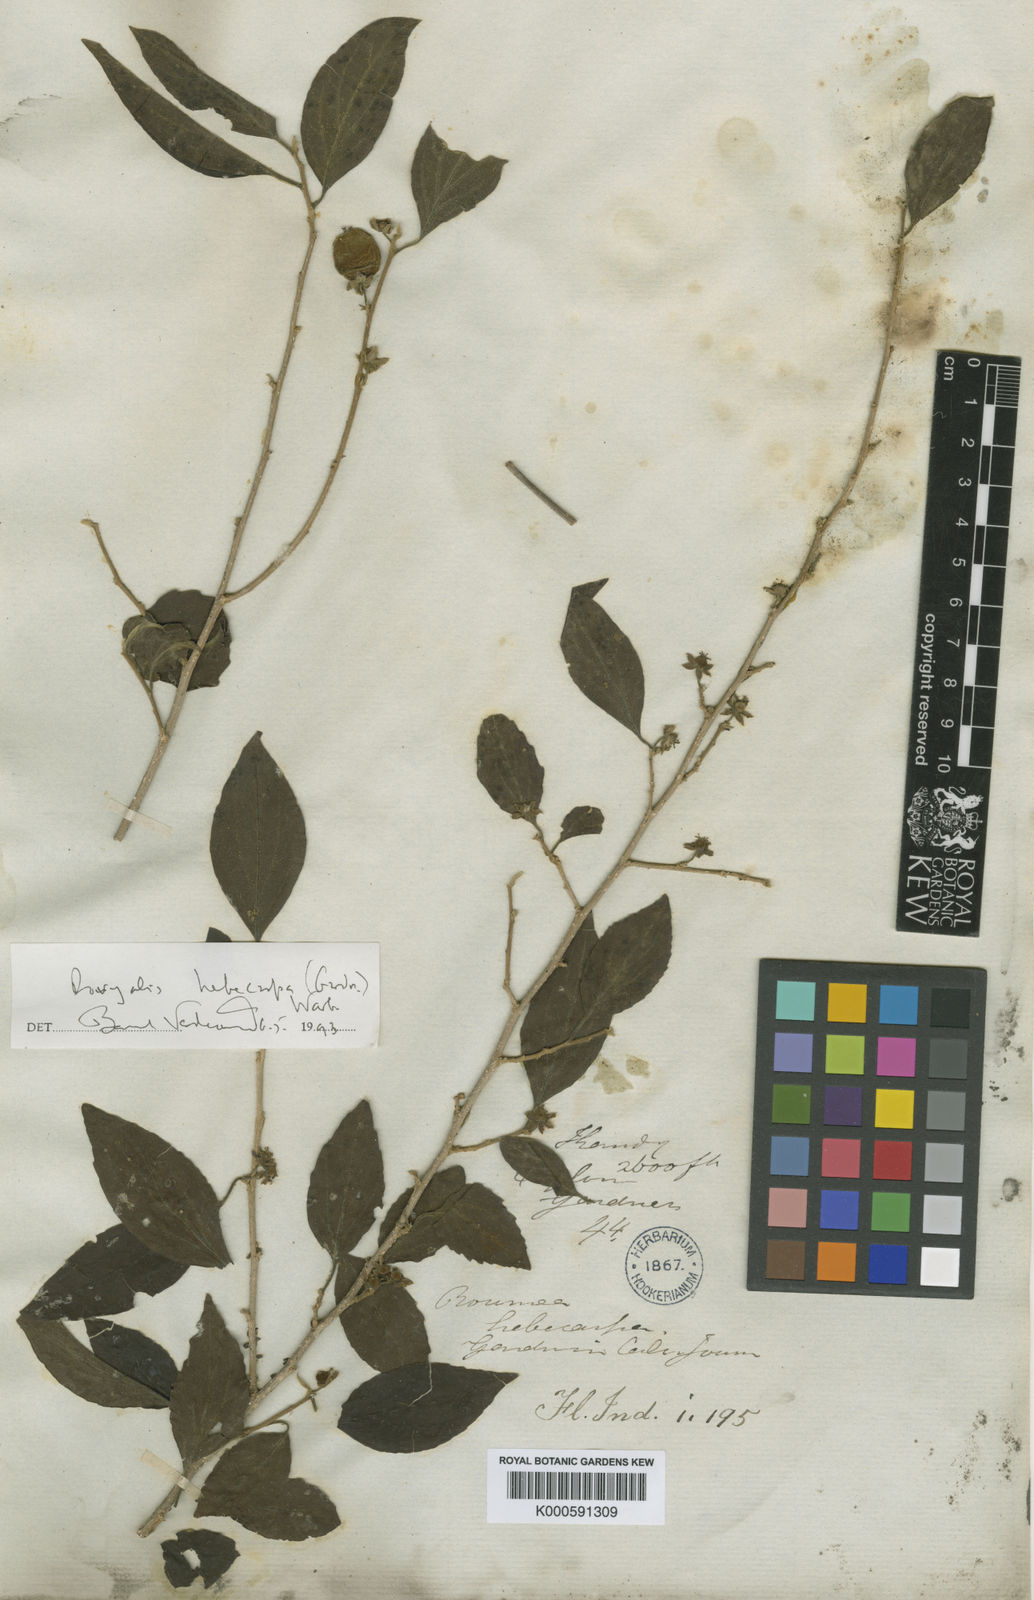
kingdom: Plantae
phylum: Tracheophyta
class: Magnoliopsida
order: Malpighiales
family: Salicaceae
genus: Dovyalis
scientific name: Dovyalis hebecarpa
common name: Ceylon gooseberry
